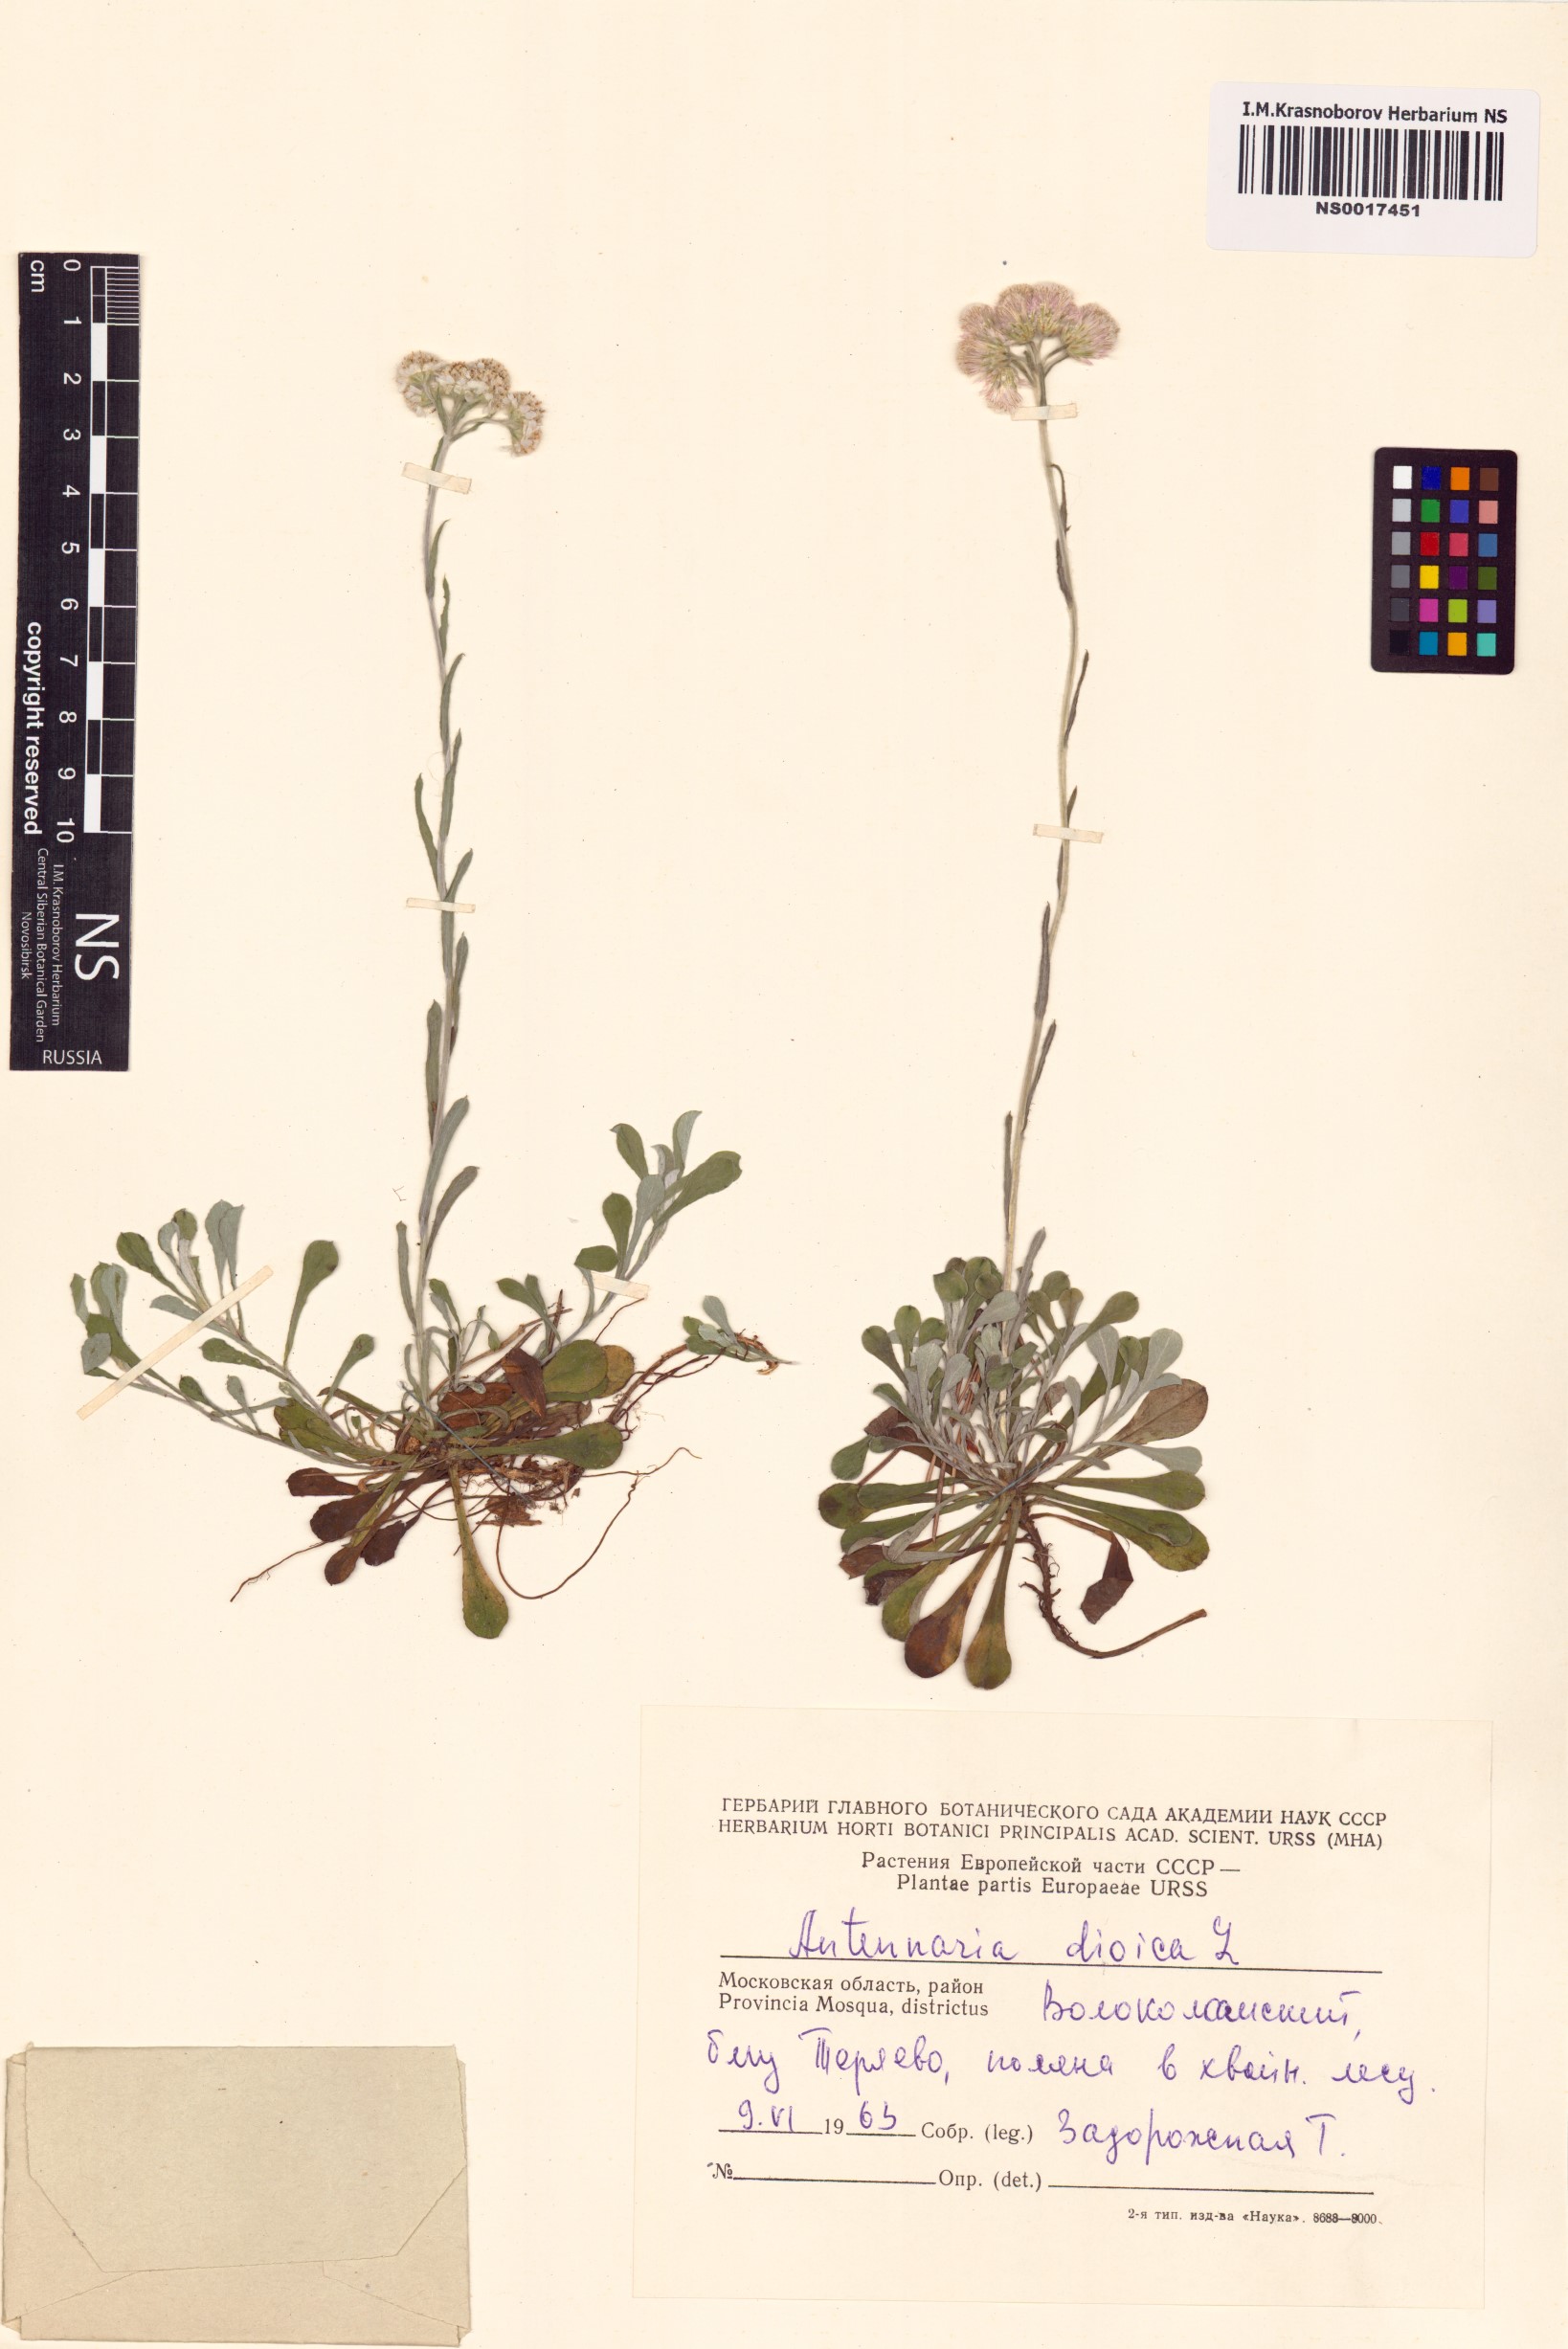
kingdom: Plantae
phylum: Tracheophyta
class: Magnoliopsida
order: Asterales
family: Asteraceae
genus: Antennaria
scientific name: Antennaria dioica
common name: Mountain everlasting
